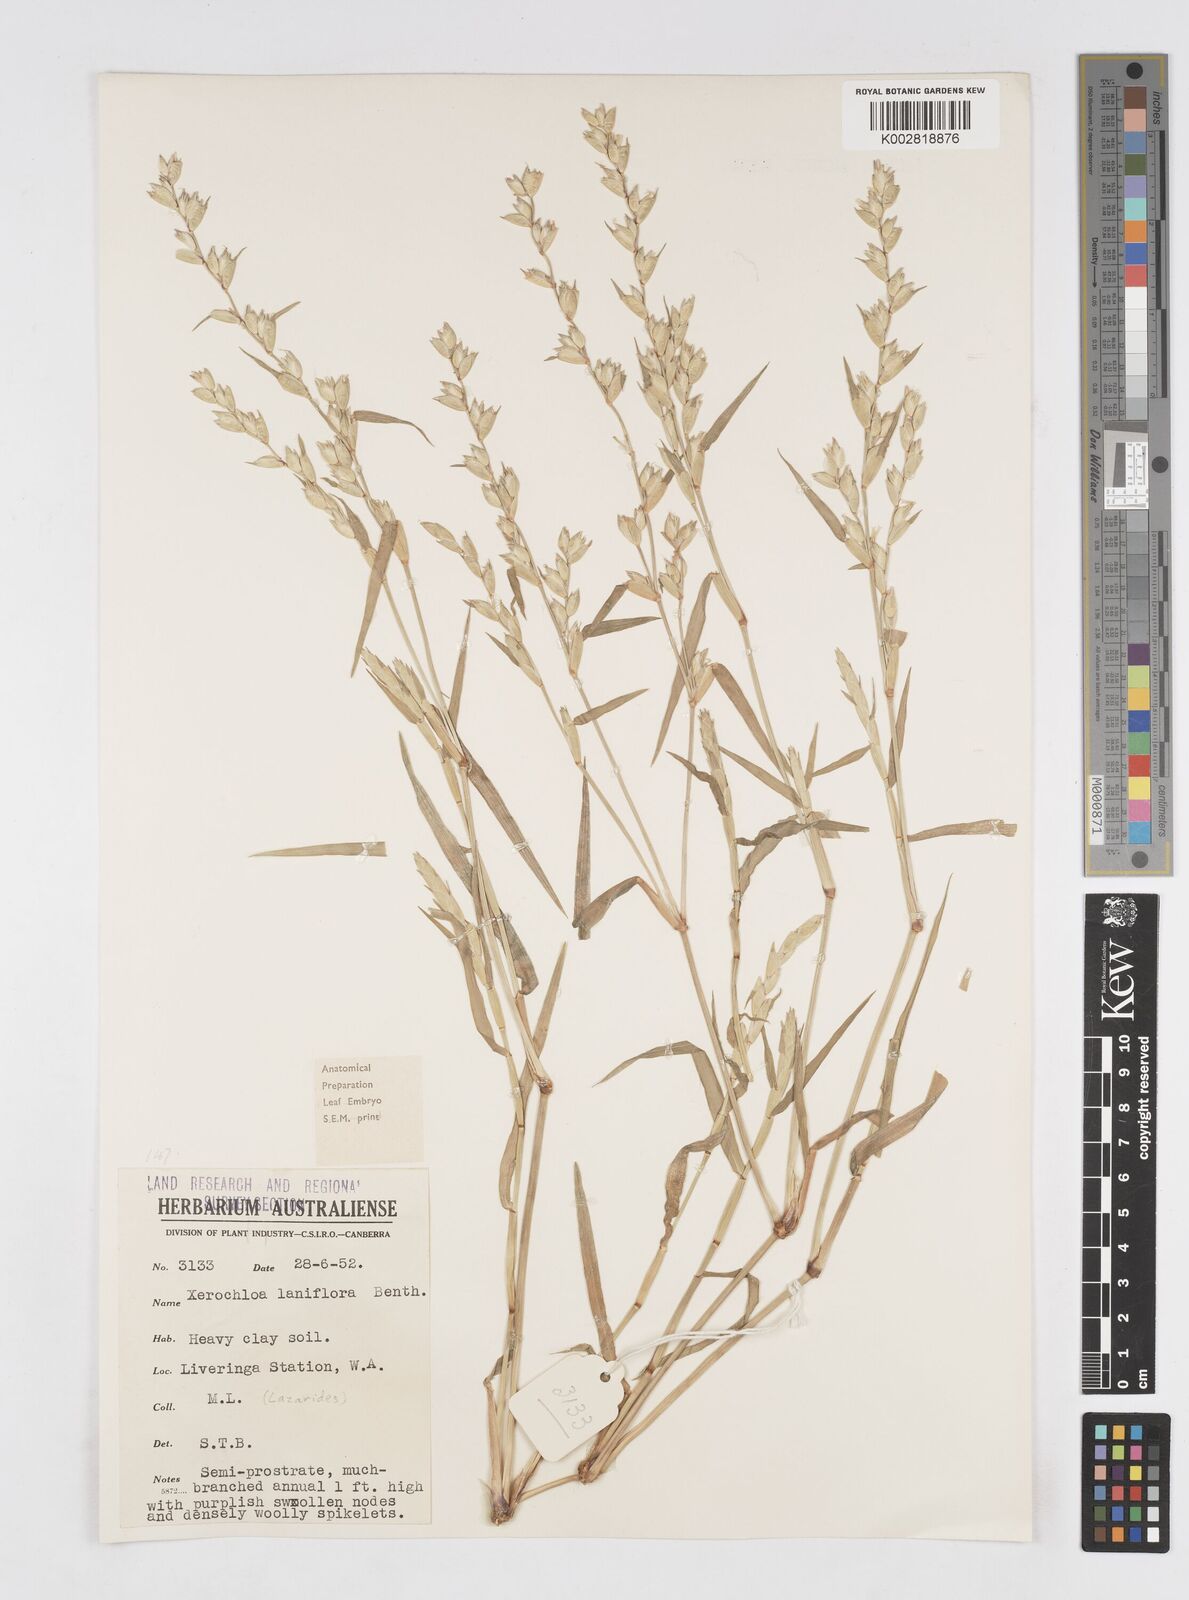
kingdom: Plantae
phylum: Tracheophyta
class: Liliopsida
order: Poales
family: Poaceae
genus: Xerochloa
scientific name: Xerochloa laniflora
